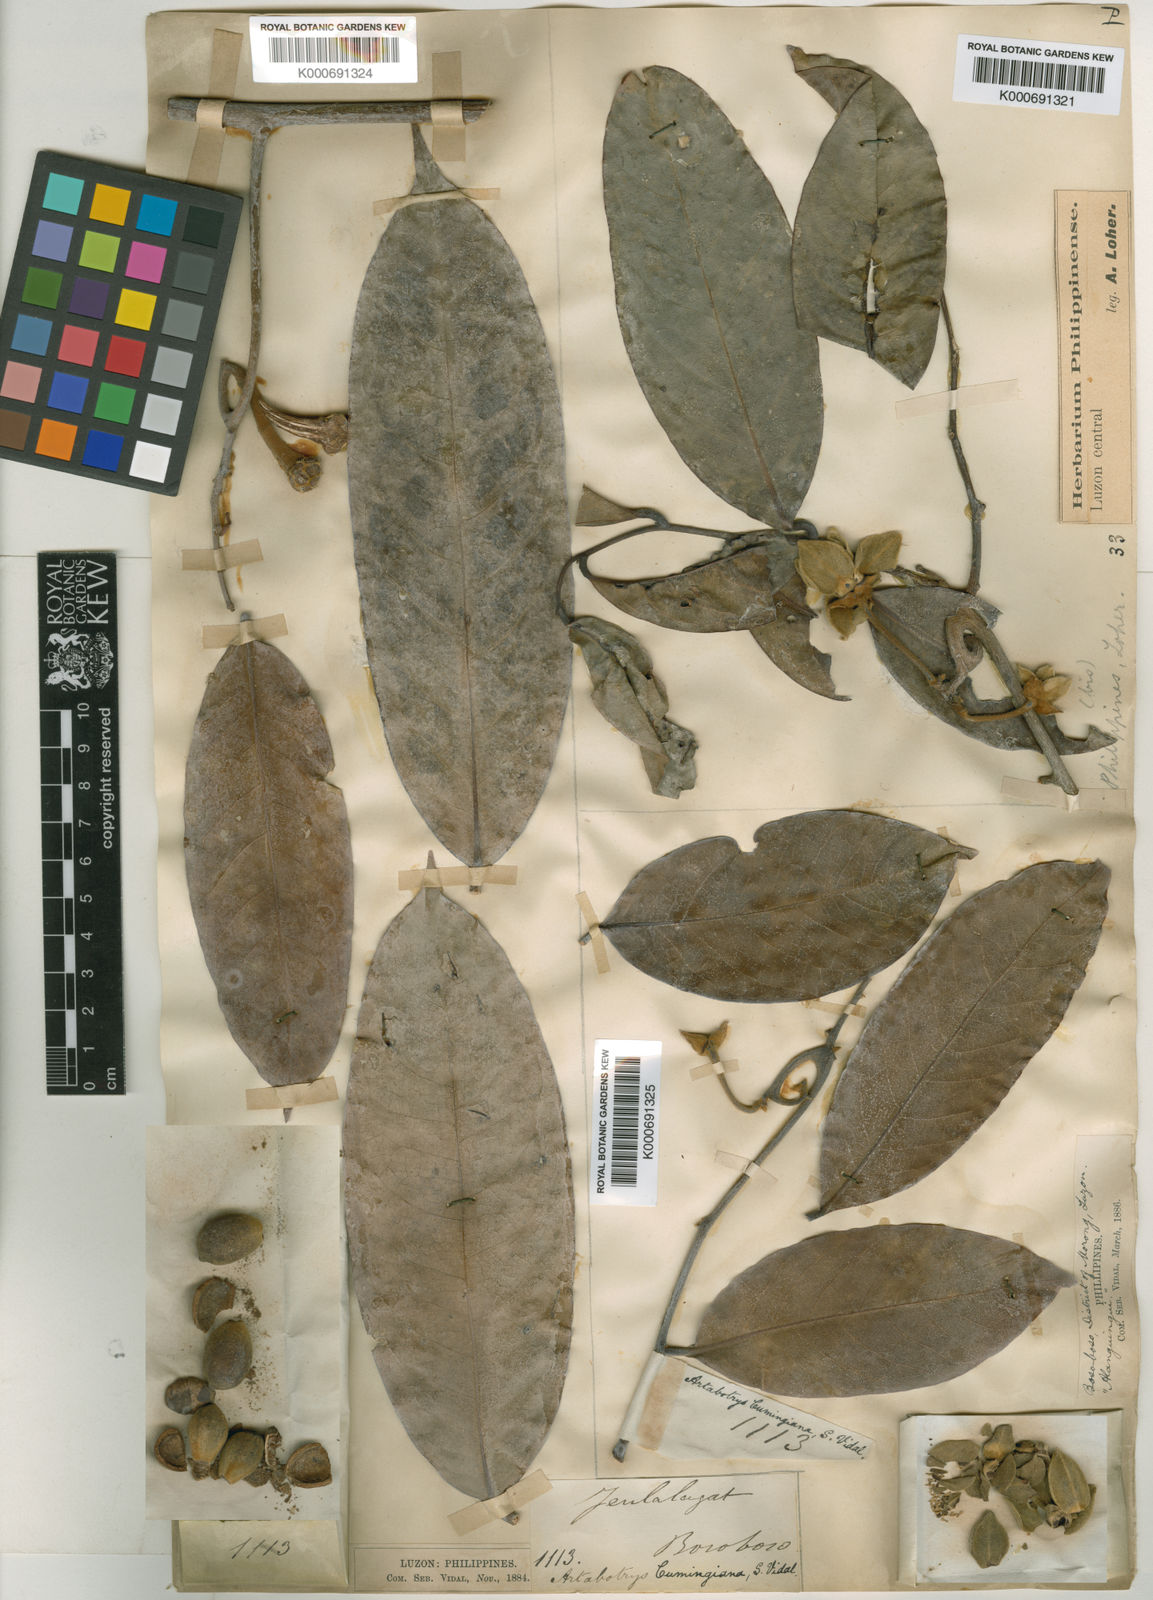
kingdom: Plantae
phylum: Tracheophyta
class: Magnoliopsida
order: Magnoliales
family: Annonaceae
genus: Artabotrys
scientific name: Artabotrys cumingianus
